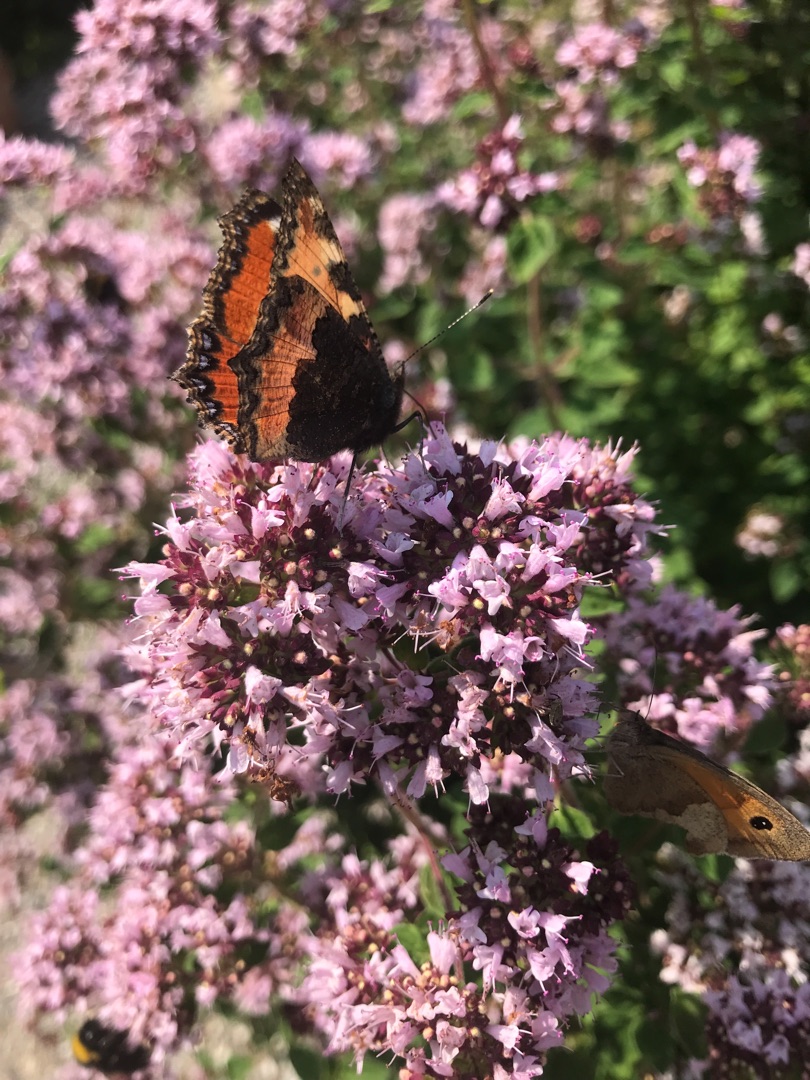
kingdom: Animalia
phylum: Arthropoda
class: Insecta
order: Lepidoptera
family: Nymphalidae
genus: Aglais
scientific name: Aglais urticae
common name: Nældens takvinge
